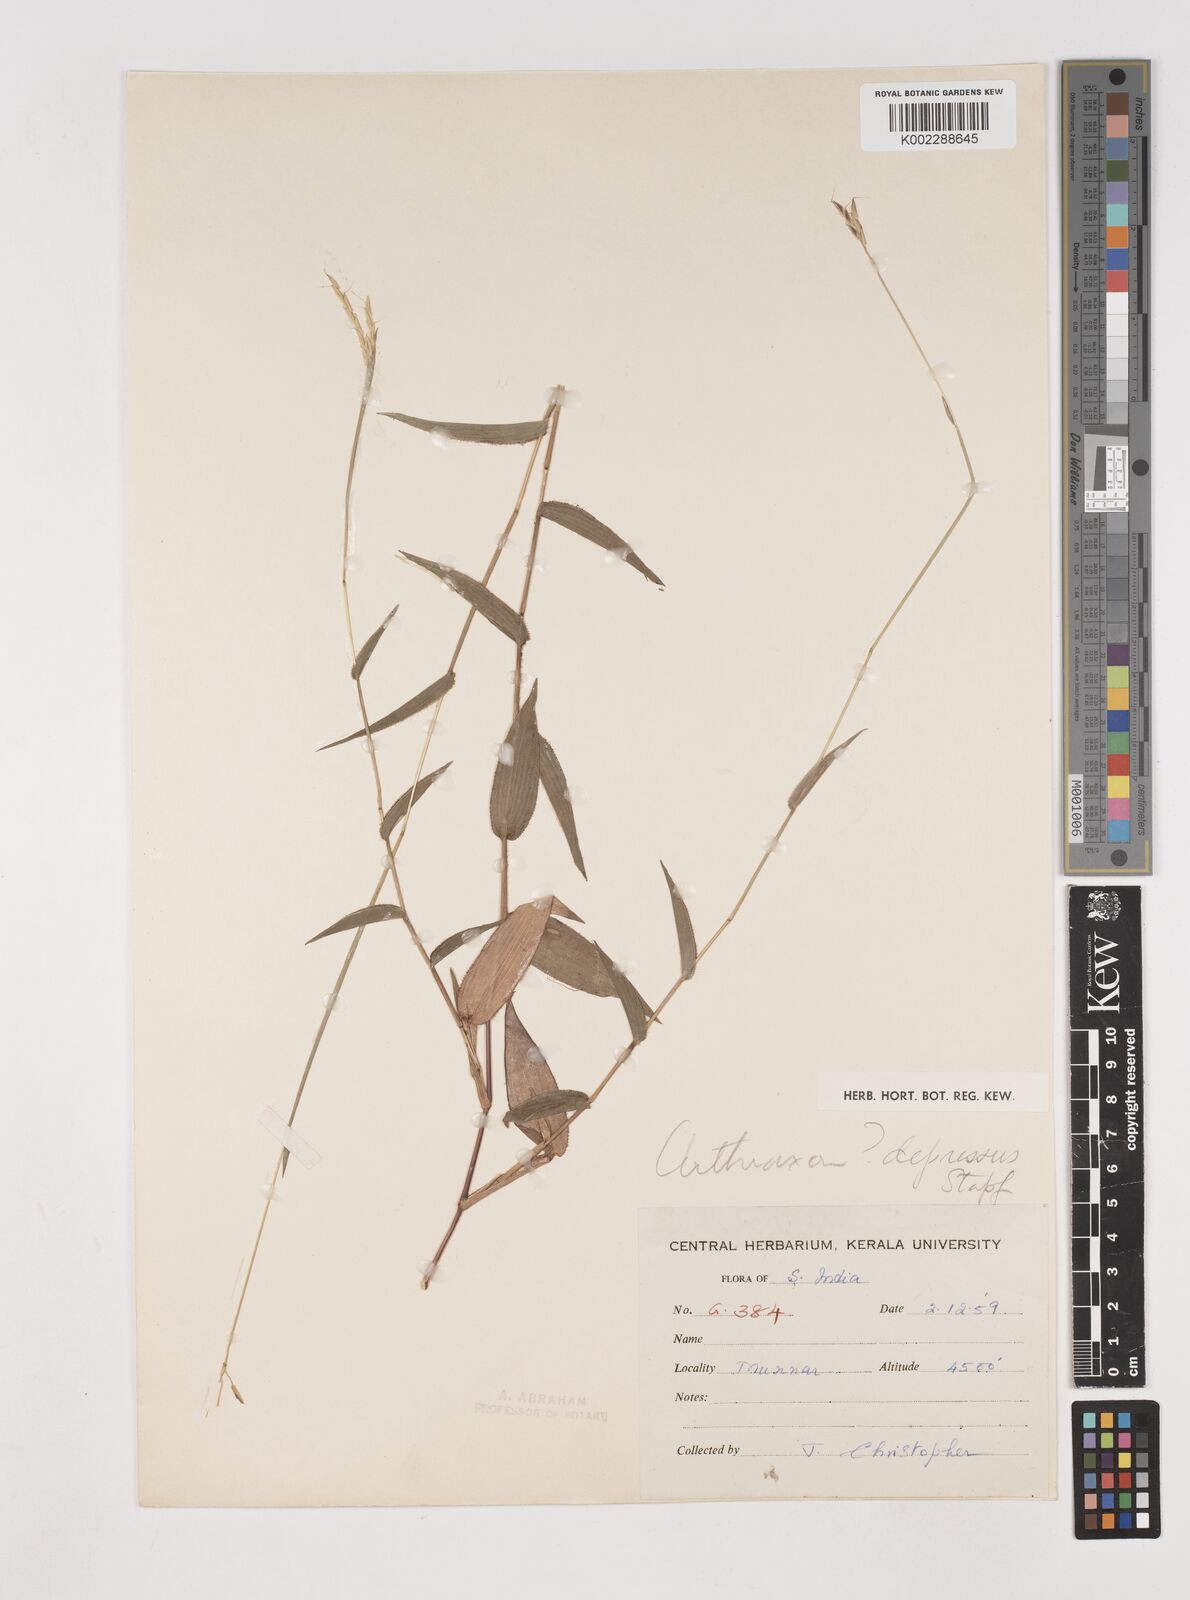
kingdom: Plantae
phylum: Tracheophyta
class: Liliopsida
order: Poales
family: Poaceae
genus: Arthraxon
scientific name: Arthraxon depressus
